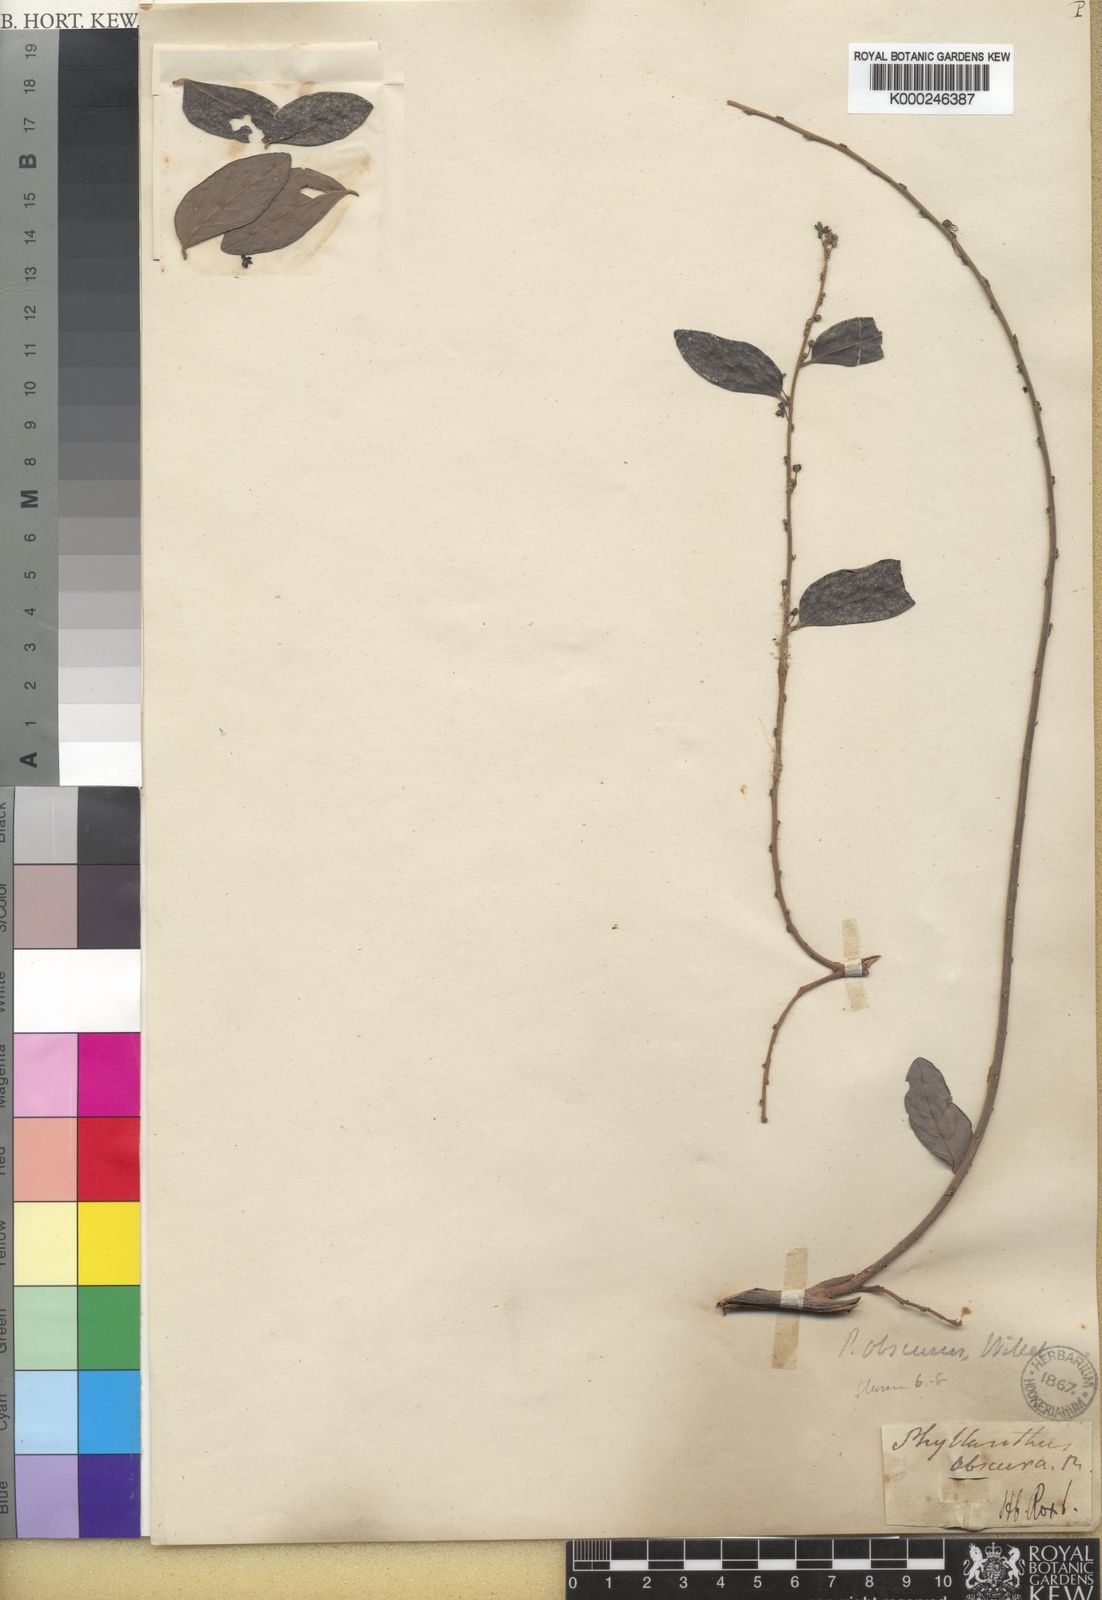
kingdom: Plantae
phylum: Tracheophyta
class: Magnoliopsida
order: Malpighiales
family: Phyllanthaceae
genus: Glochidion
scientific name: Glochidion obscurum
